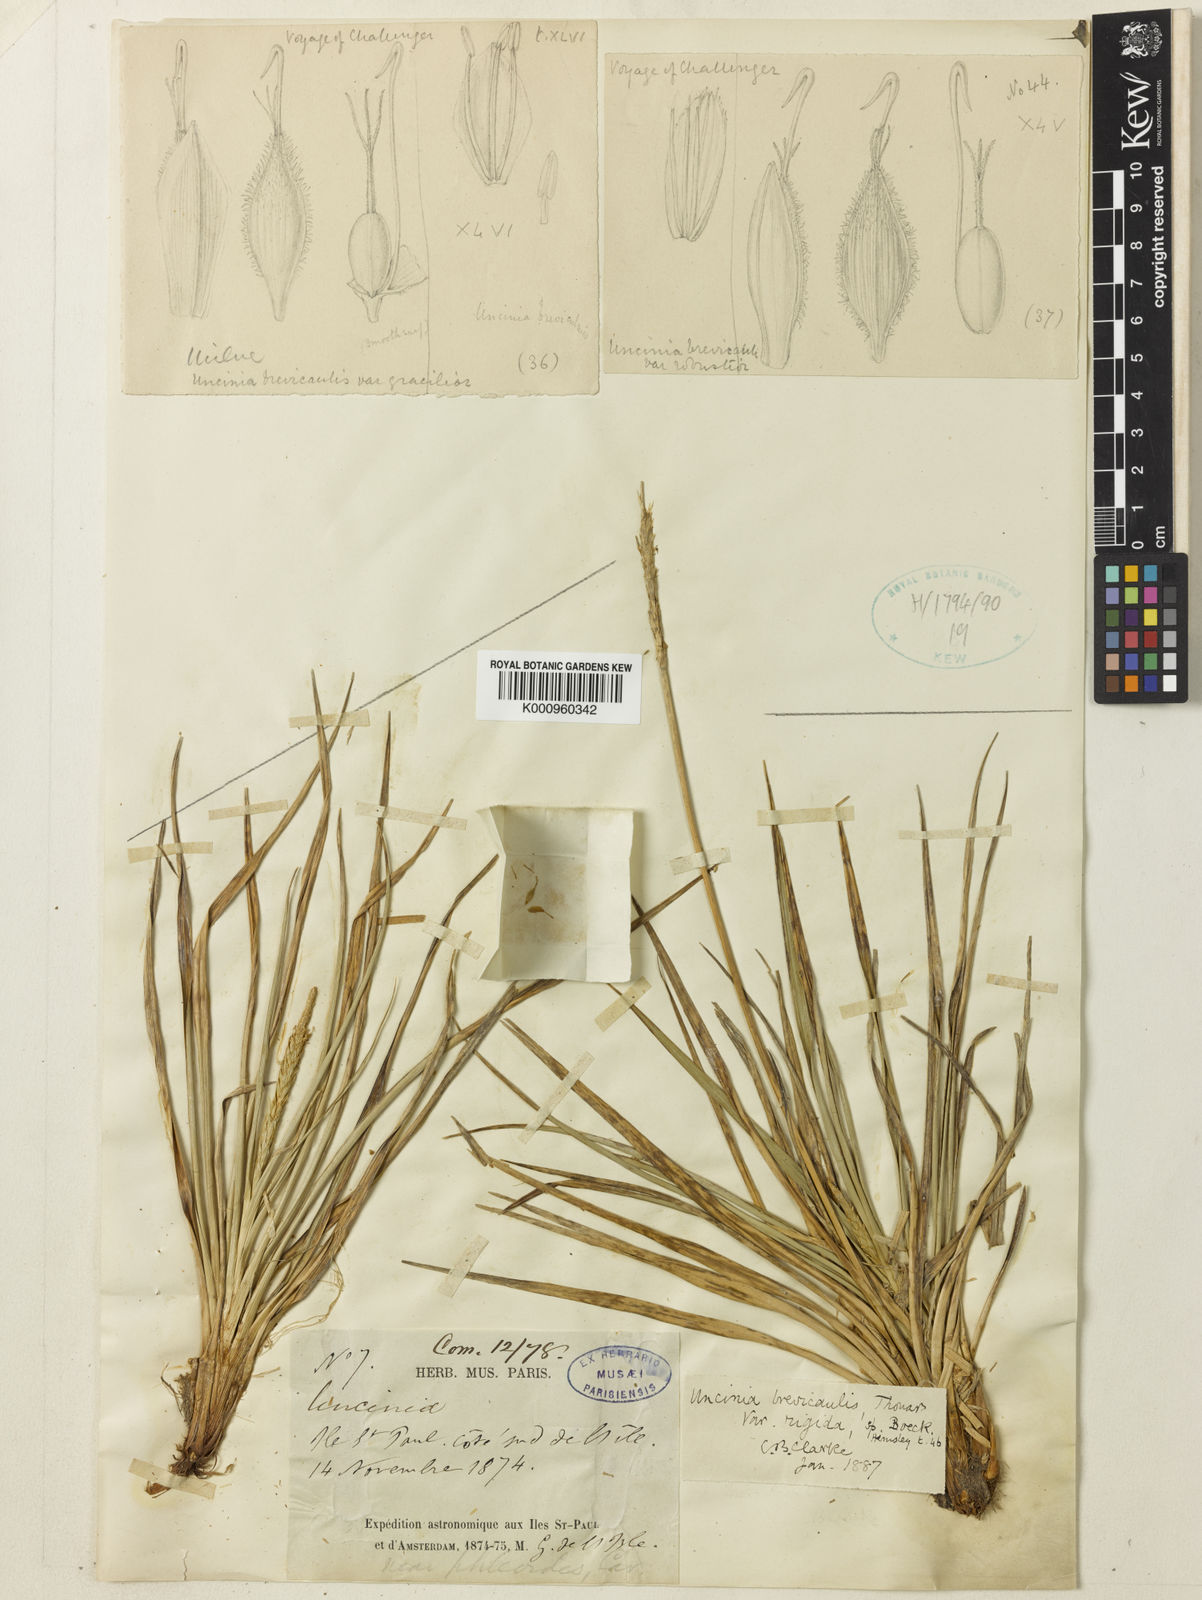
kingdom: Fungi
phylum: Ascomycota
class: Leotiomycetes
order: Helotiales
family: Hamatocanthoscyphaceae
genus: Uncinia
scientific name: Uncinia
